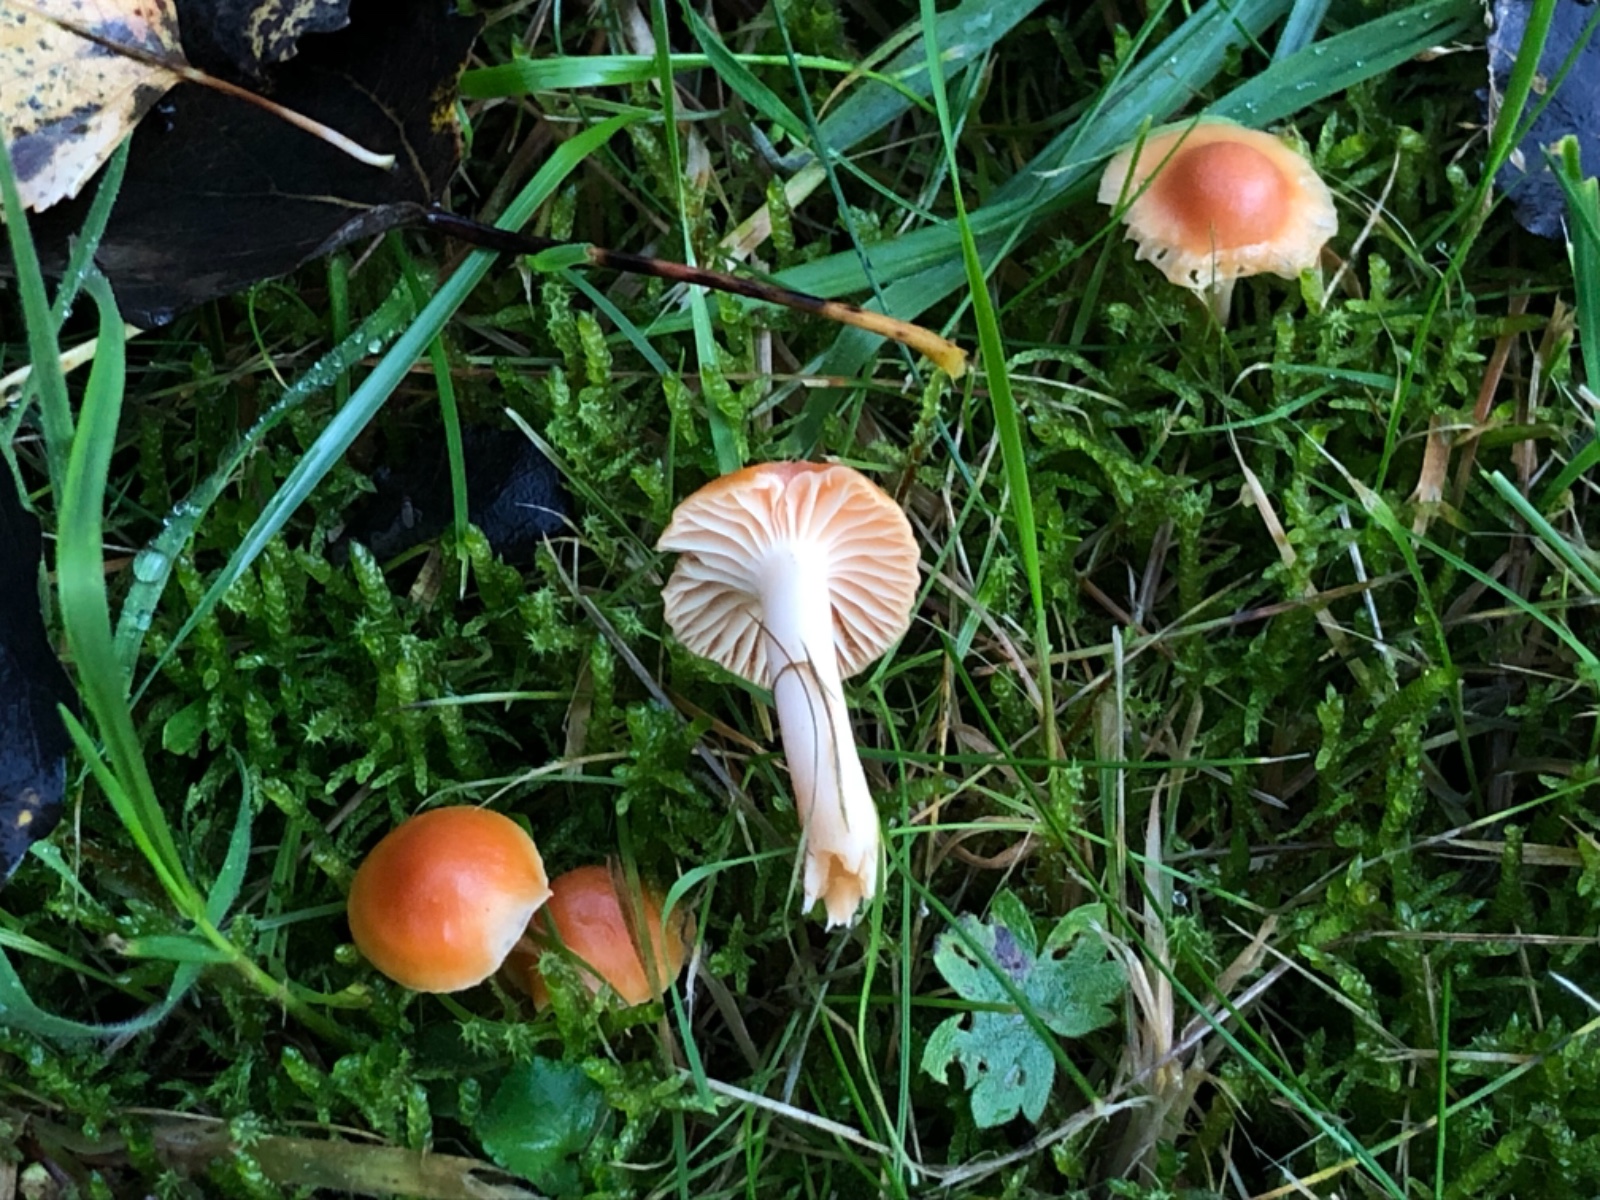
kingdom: Fungi
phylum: Basidiomycota
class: Agaricomycetes
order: Agaricales
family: Hygrophoraceae
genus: Cuphophyllus
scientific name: Cuphophyllus pratensis
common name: eng-vokshat
